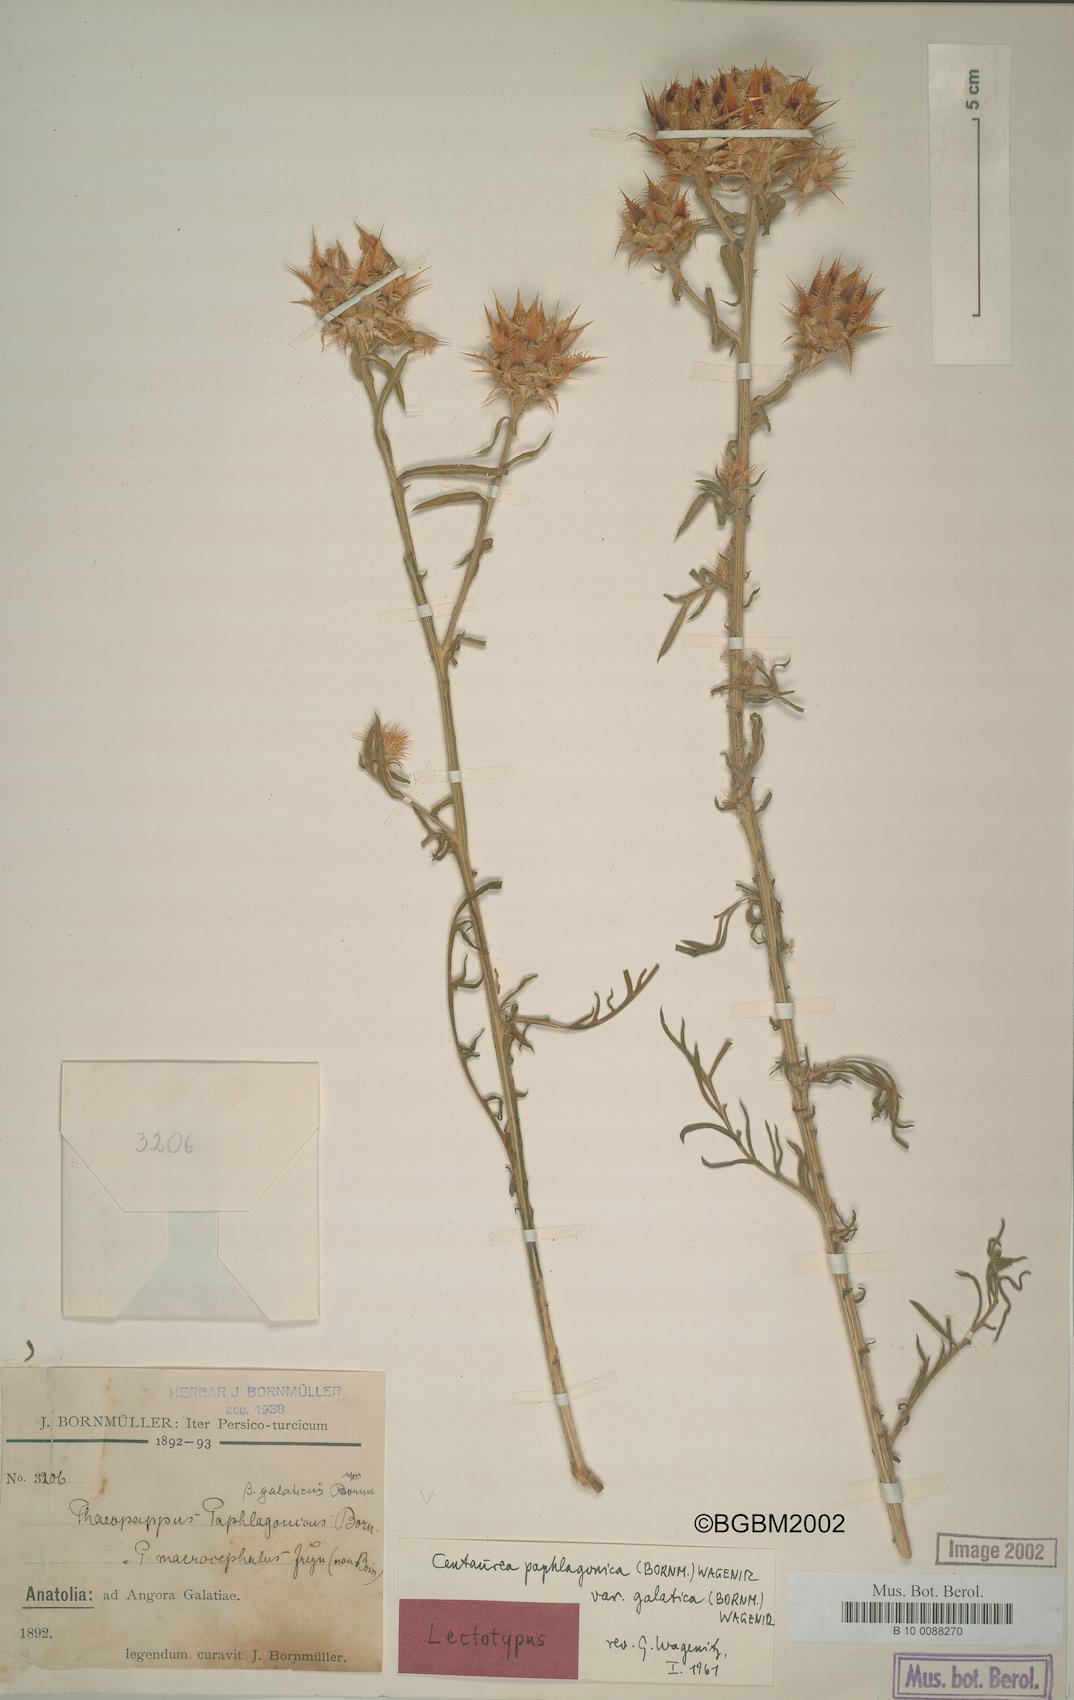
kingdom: Plantae
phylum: Tracheophyta
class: Magnoliopsida
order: Asterales
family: Asteraceae
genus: Centaurea
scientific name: Centaurea paphlagonica
